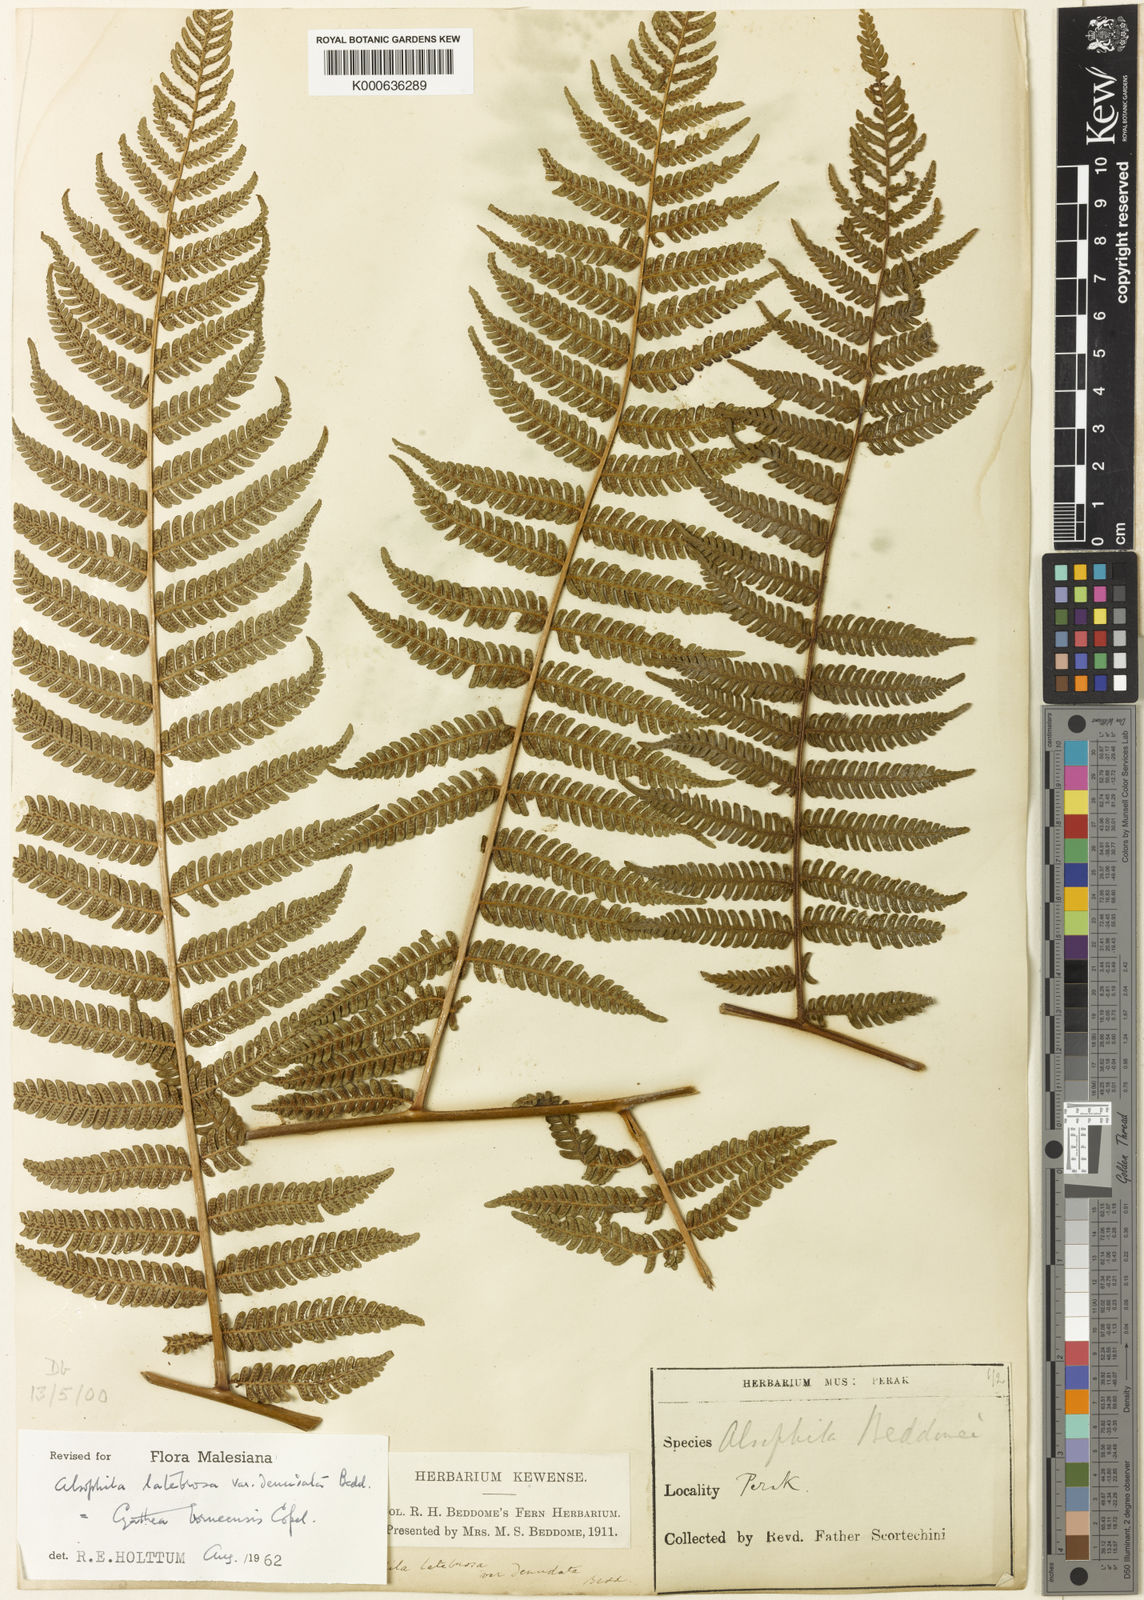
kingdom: Plantae
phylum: Tracheophyta
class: Polypodiopsida
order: Cyatheales
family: Cyatheaceae
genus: Alsophila
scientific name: Alsophila borneensis
